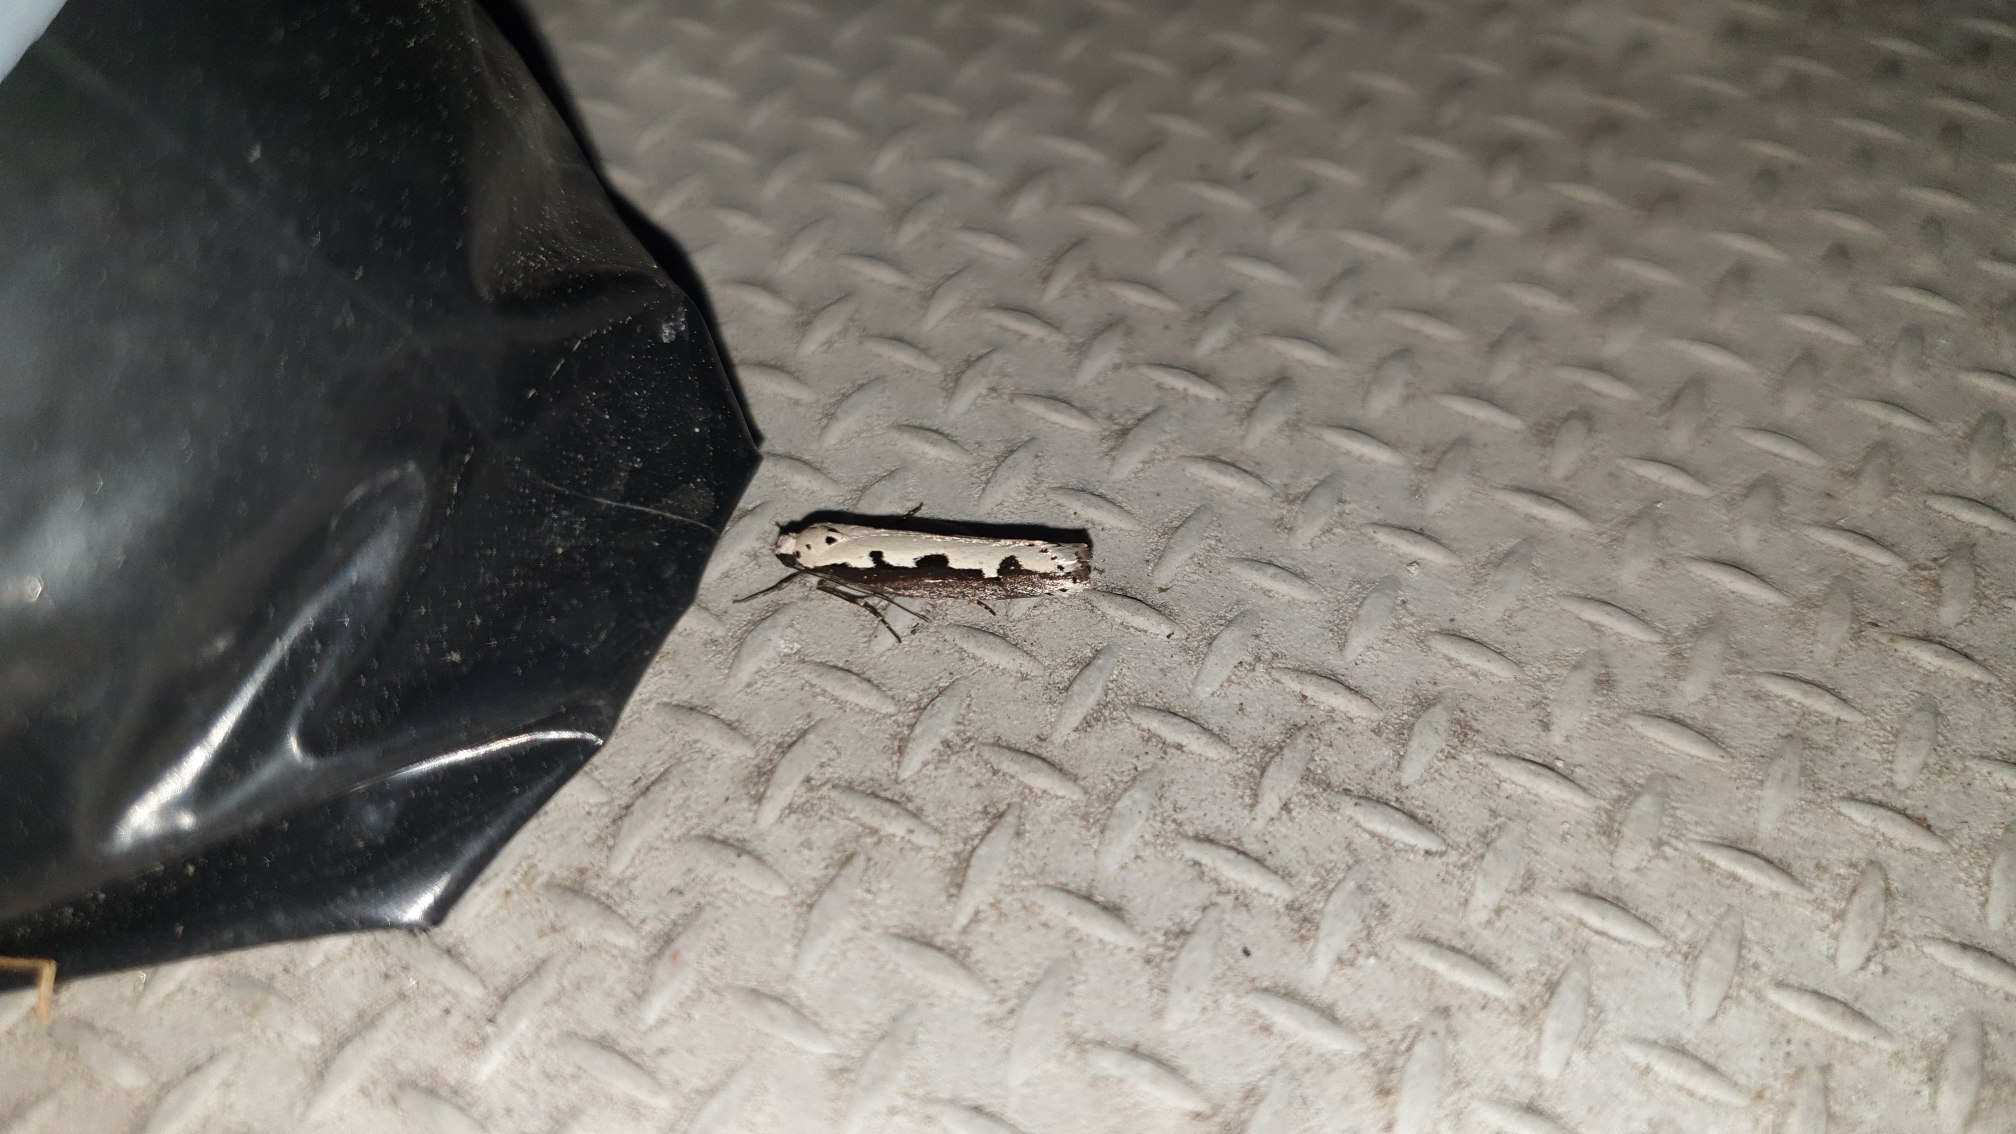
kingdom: Animalia
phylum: Arthropoda
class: Insecta
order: Lepidoptera
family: Ethmiidae
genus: Ethmia
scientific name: Ethmia bipunctella
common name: Slangehovedmøl
